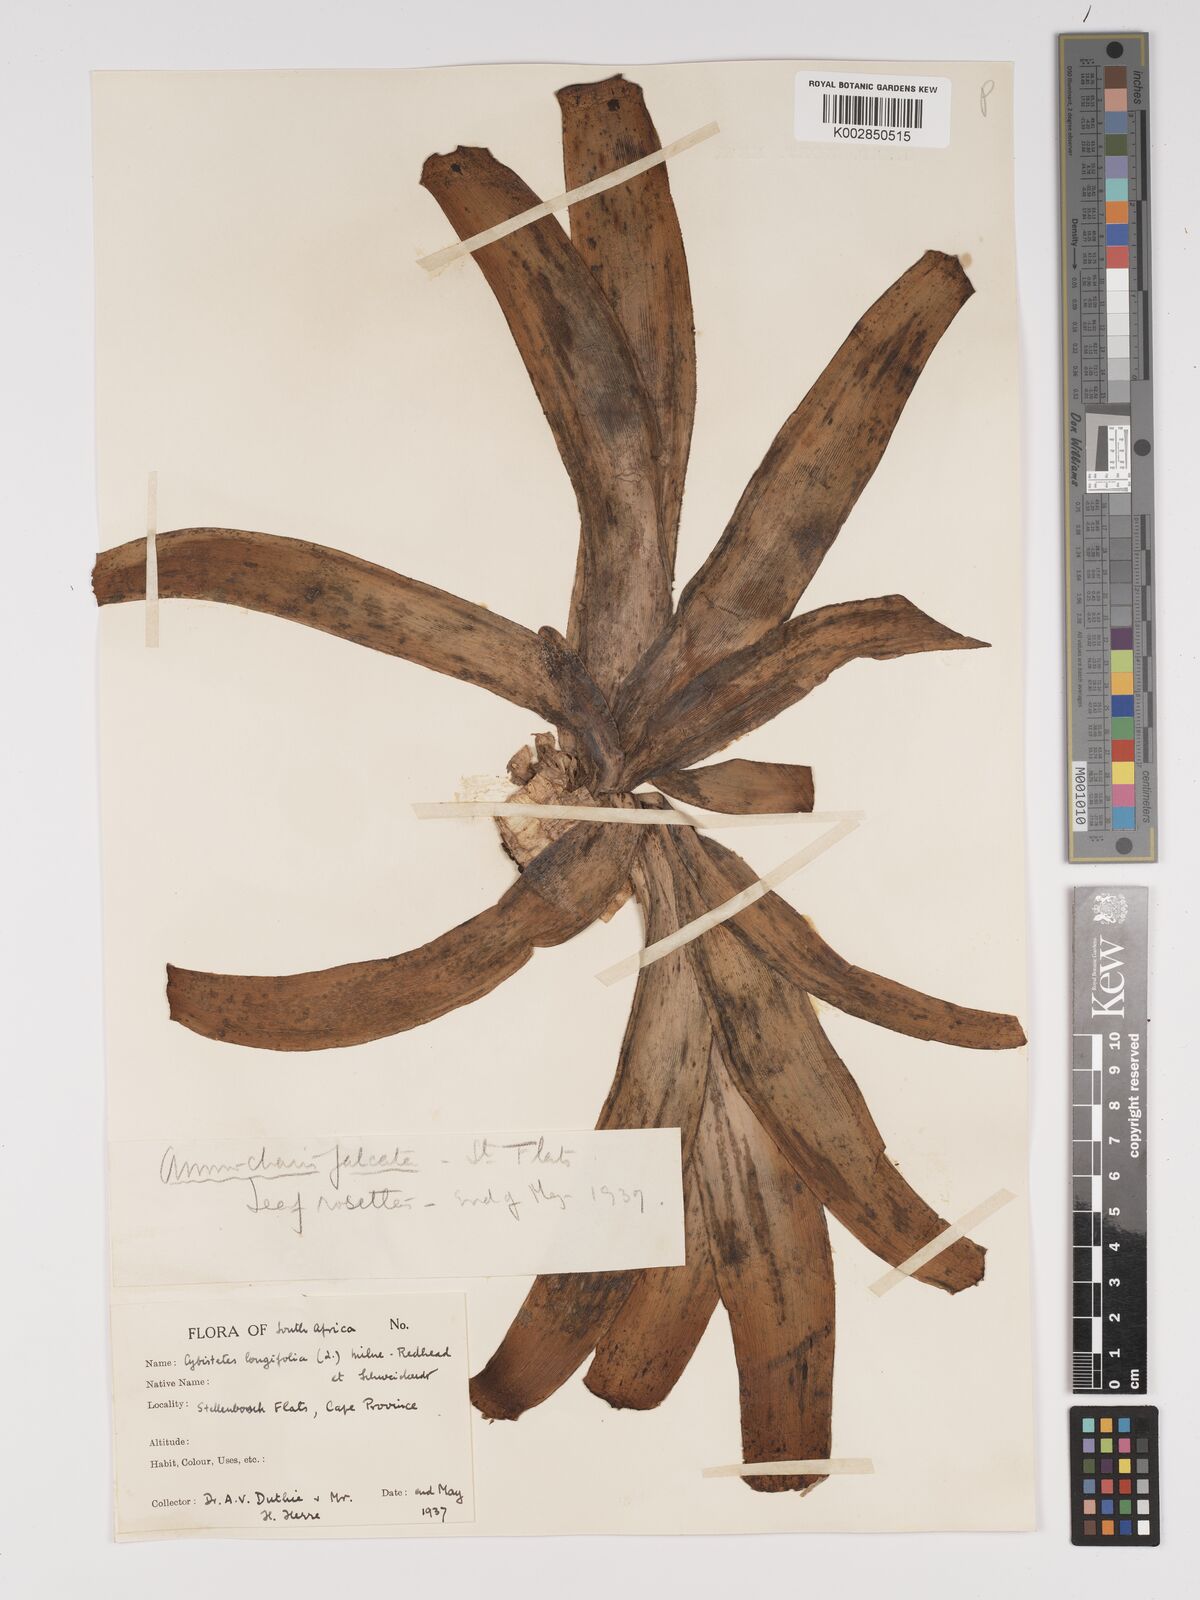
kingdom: Plantae
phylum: Tracheophyta
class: Liliopsida
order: Asparagales
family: Amaryllidaceae
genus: Ammocharis
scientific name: Ammocharis longifolia
